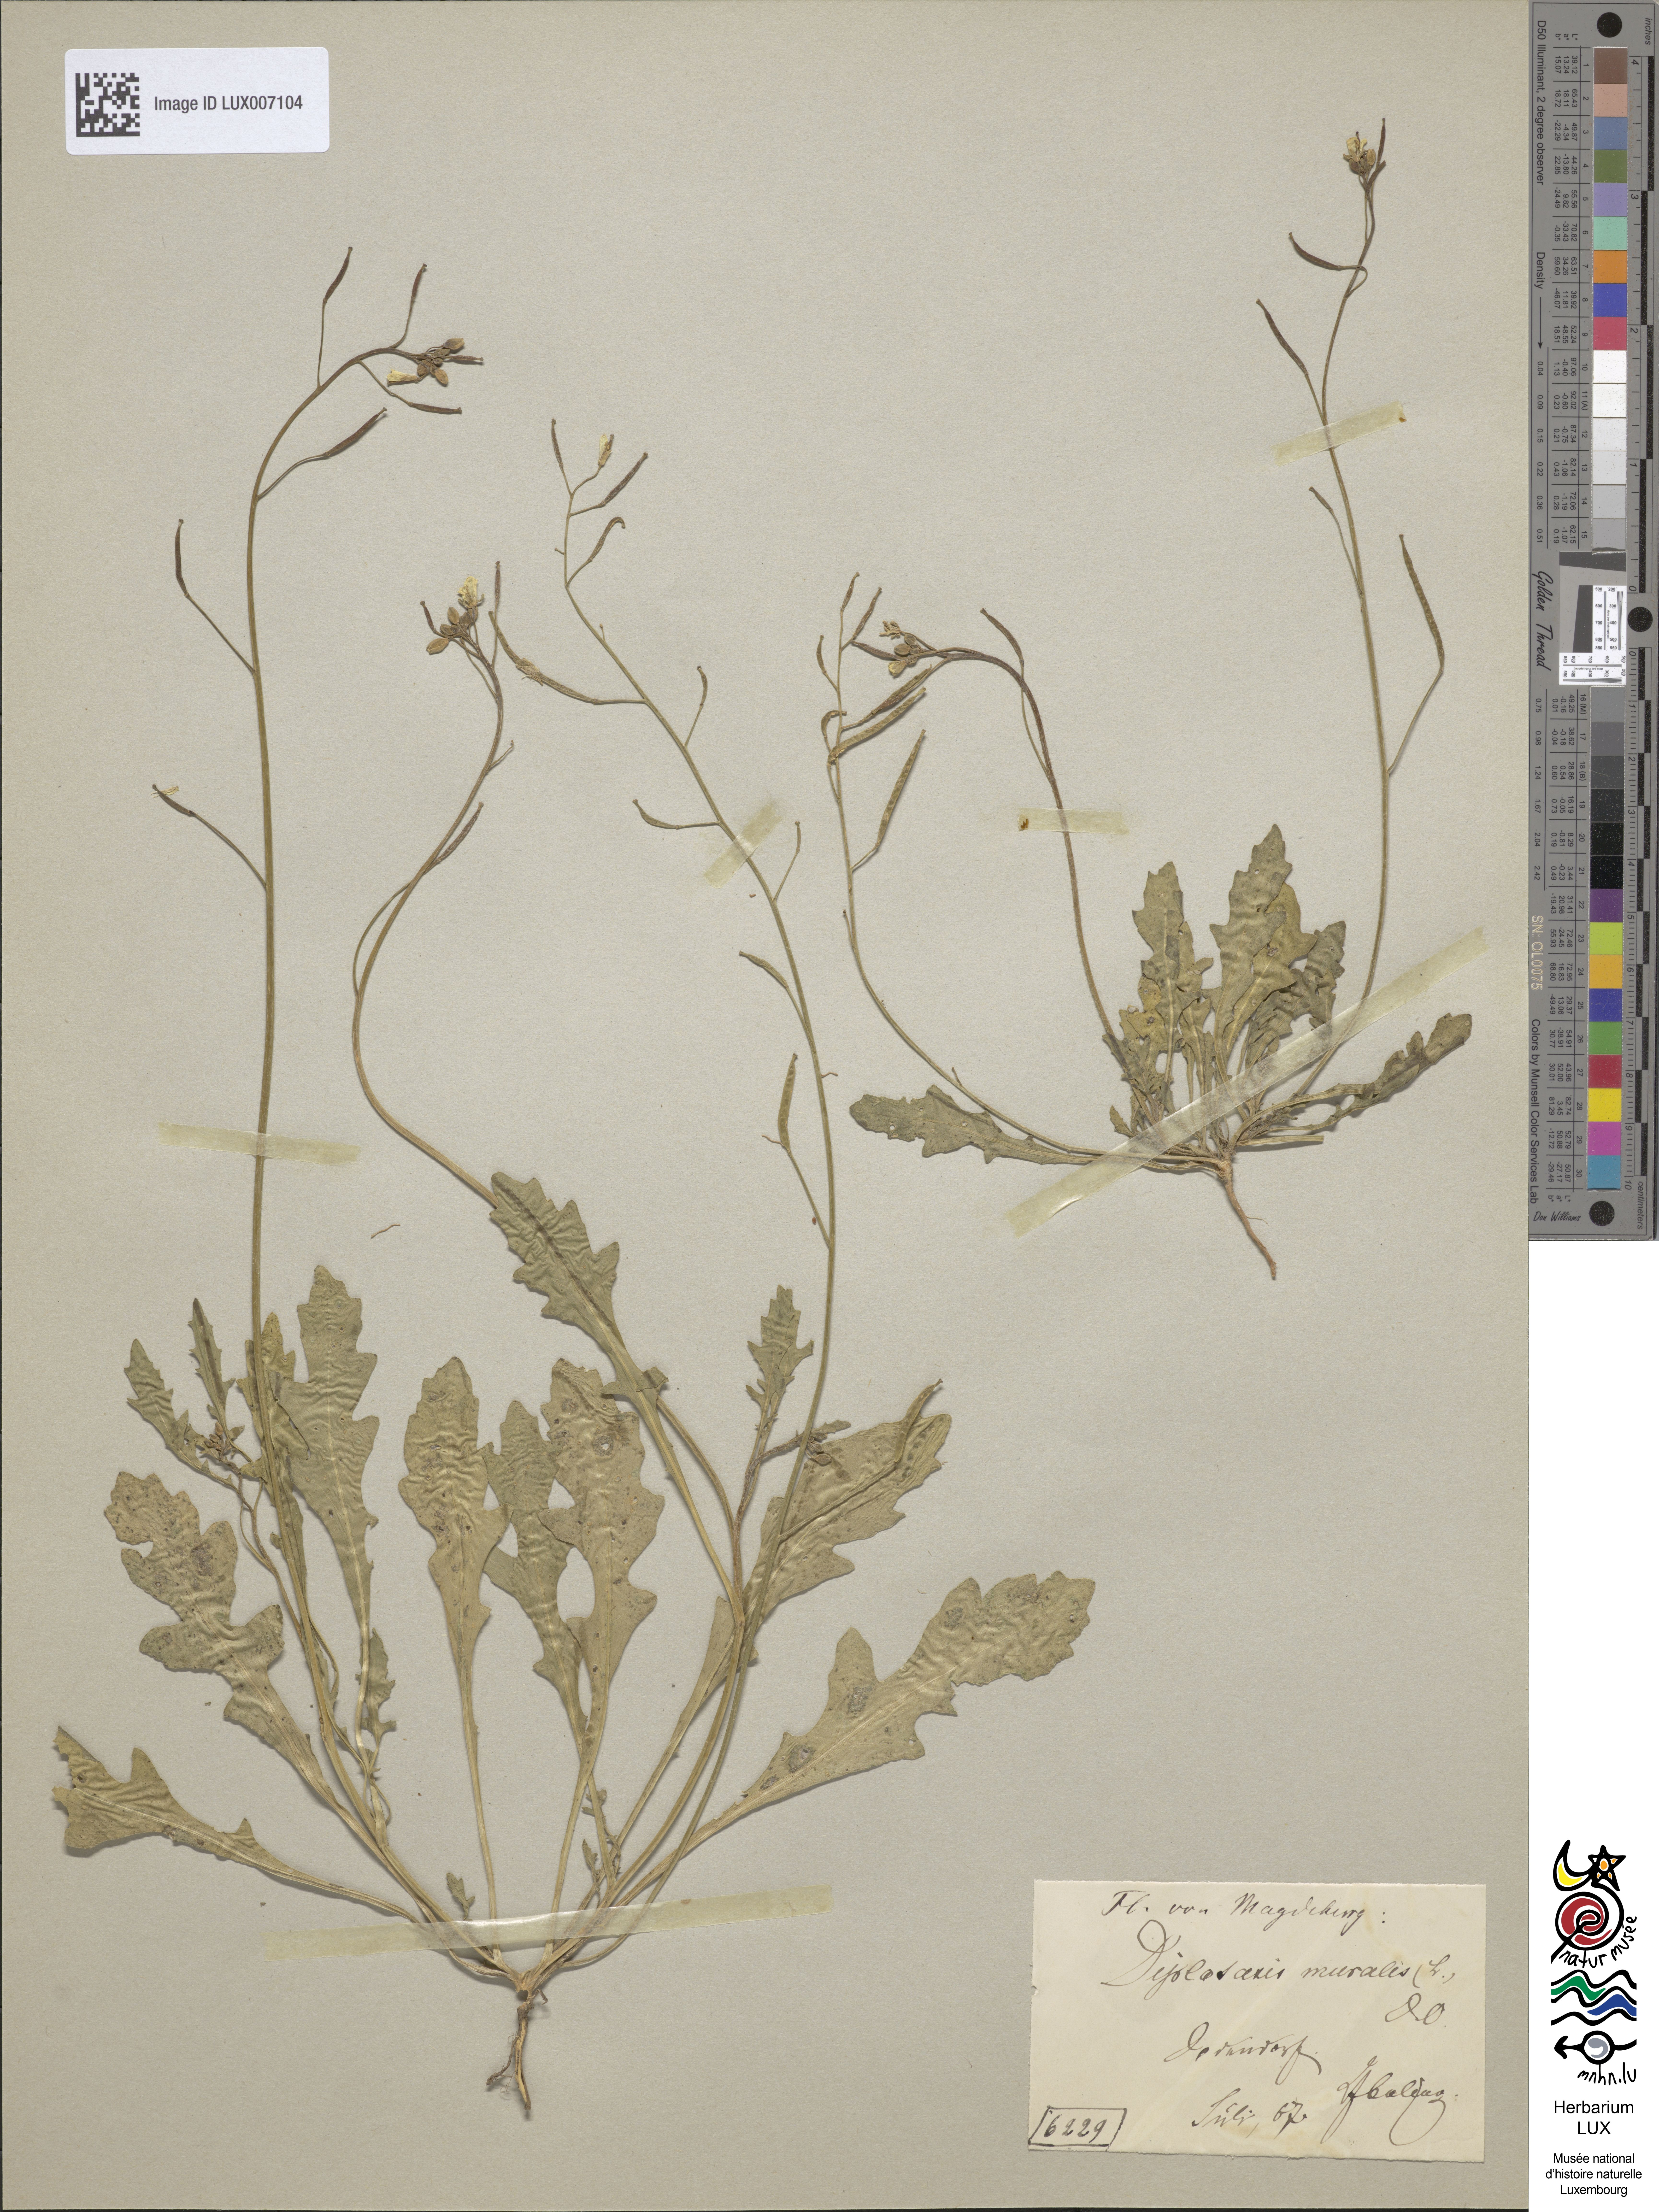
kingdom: Plantae
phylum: Tracheophyta
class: Magnoliopsida
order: Brassicales
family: Brassicaceae
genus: Diplotaxis
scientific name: Diplotaxis muralis
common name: Annual wall-rocket
